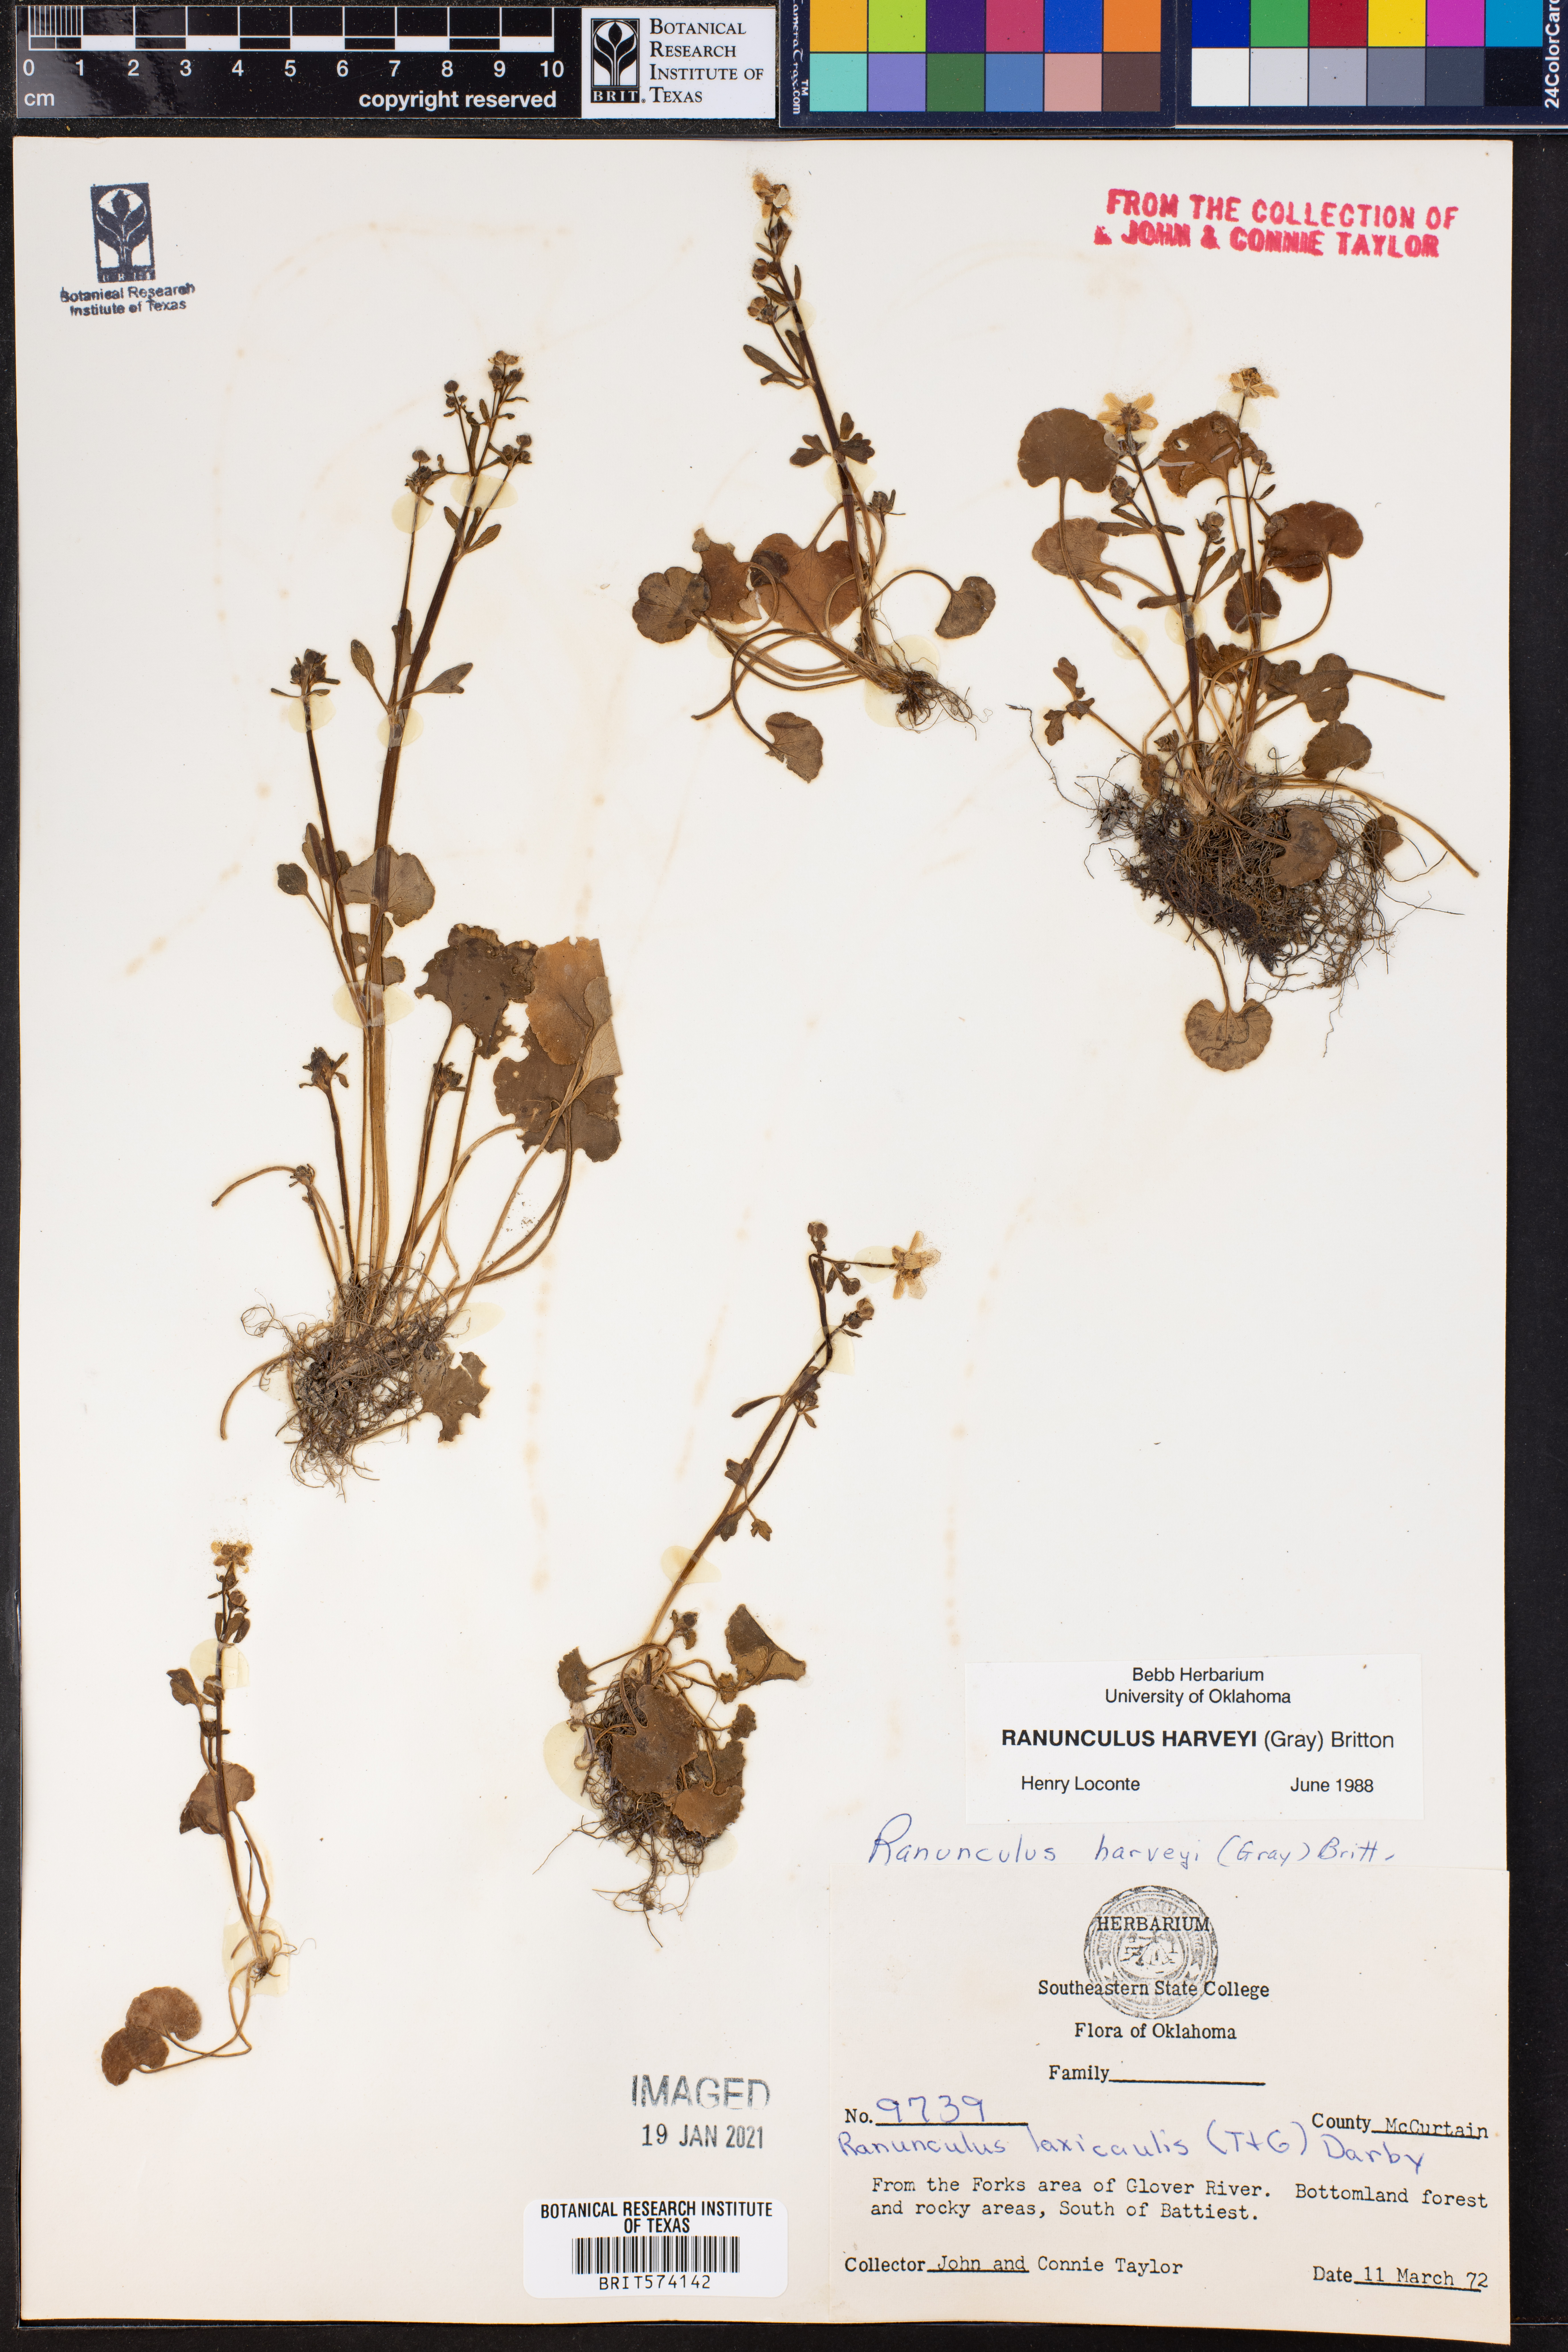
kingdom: Plantae
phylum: Tracheophyta
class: Magnoliopsida
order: Ranunculales
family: Ranunculaceae
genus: Ranunculus
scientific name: Ranunculus harveyi
